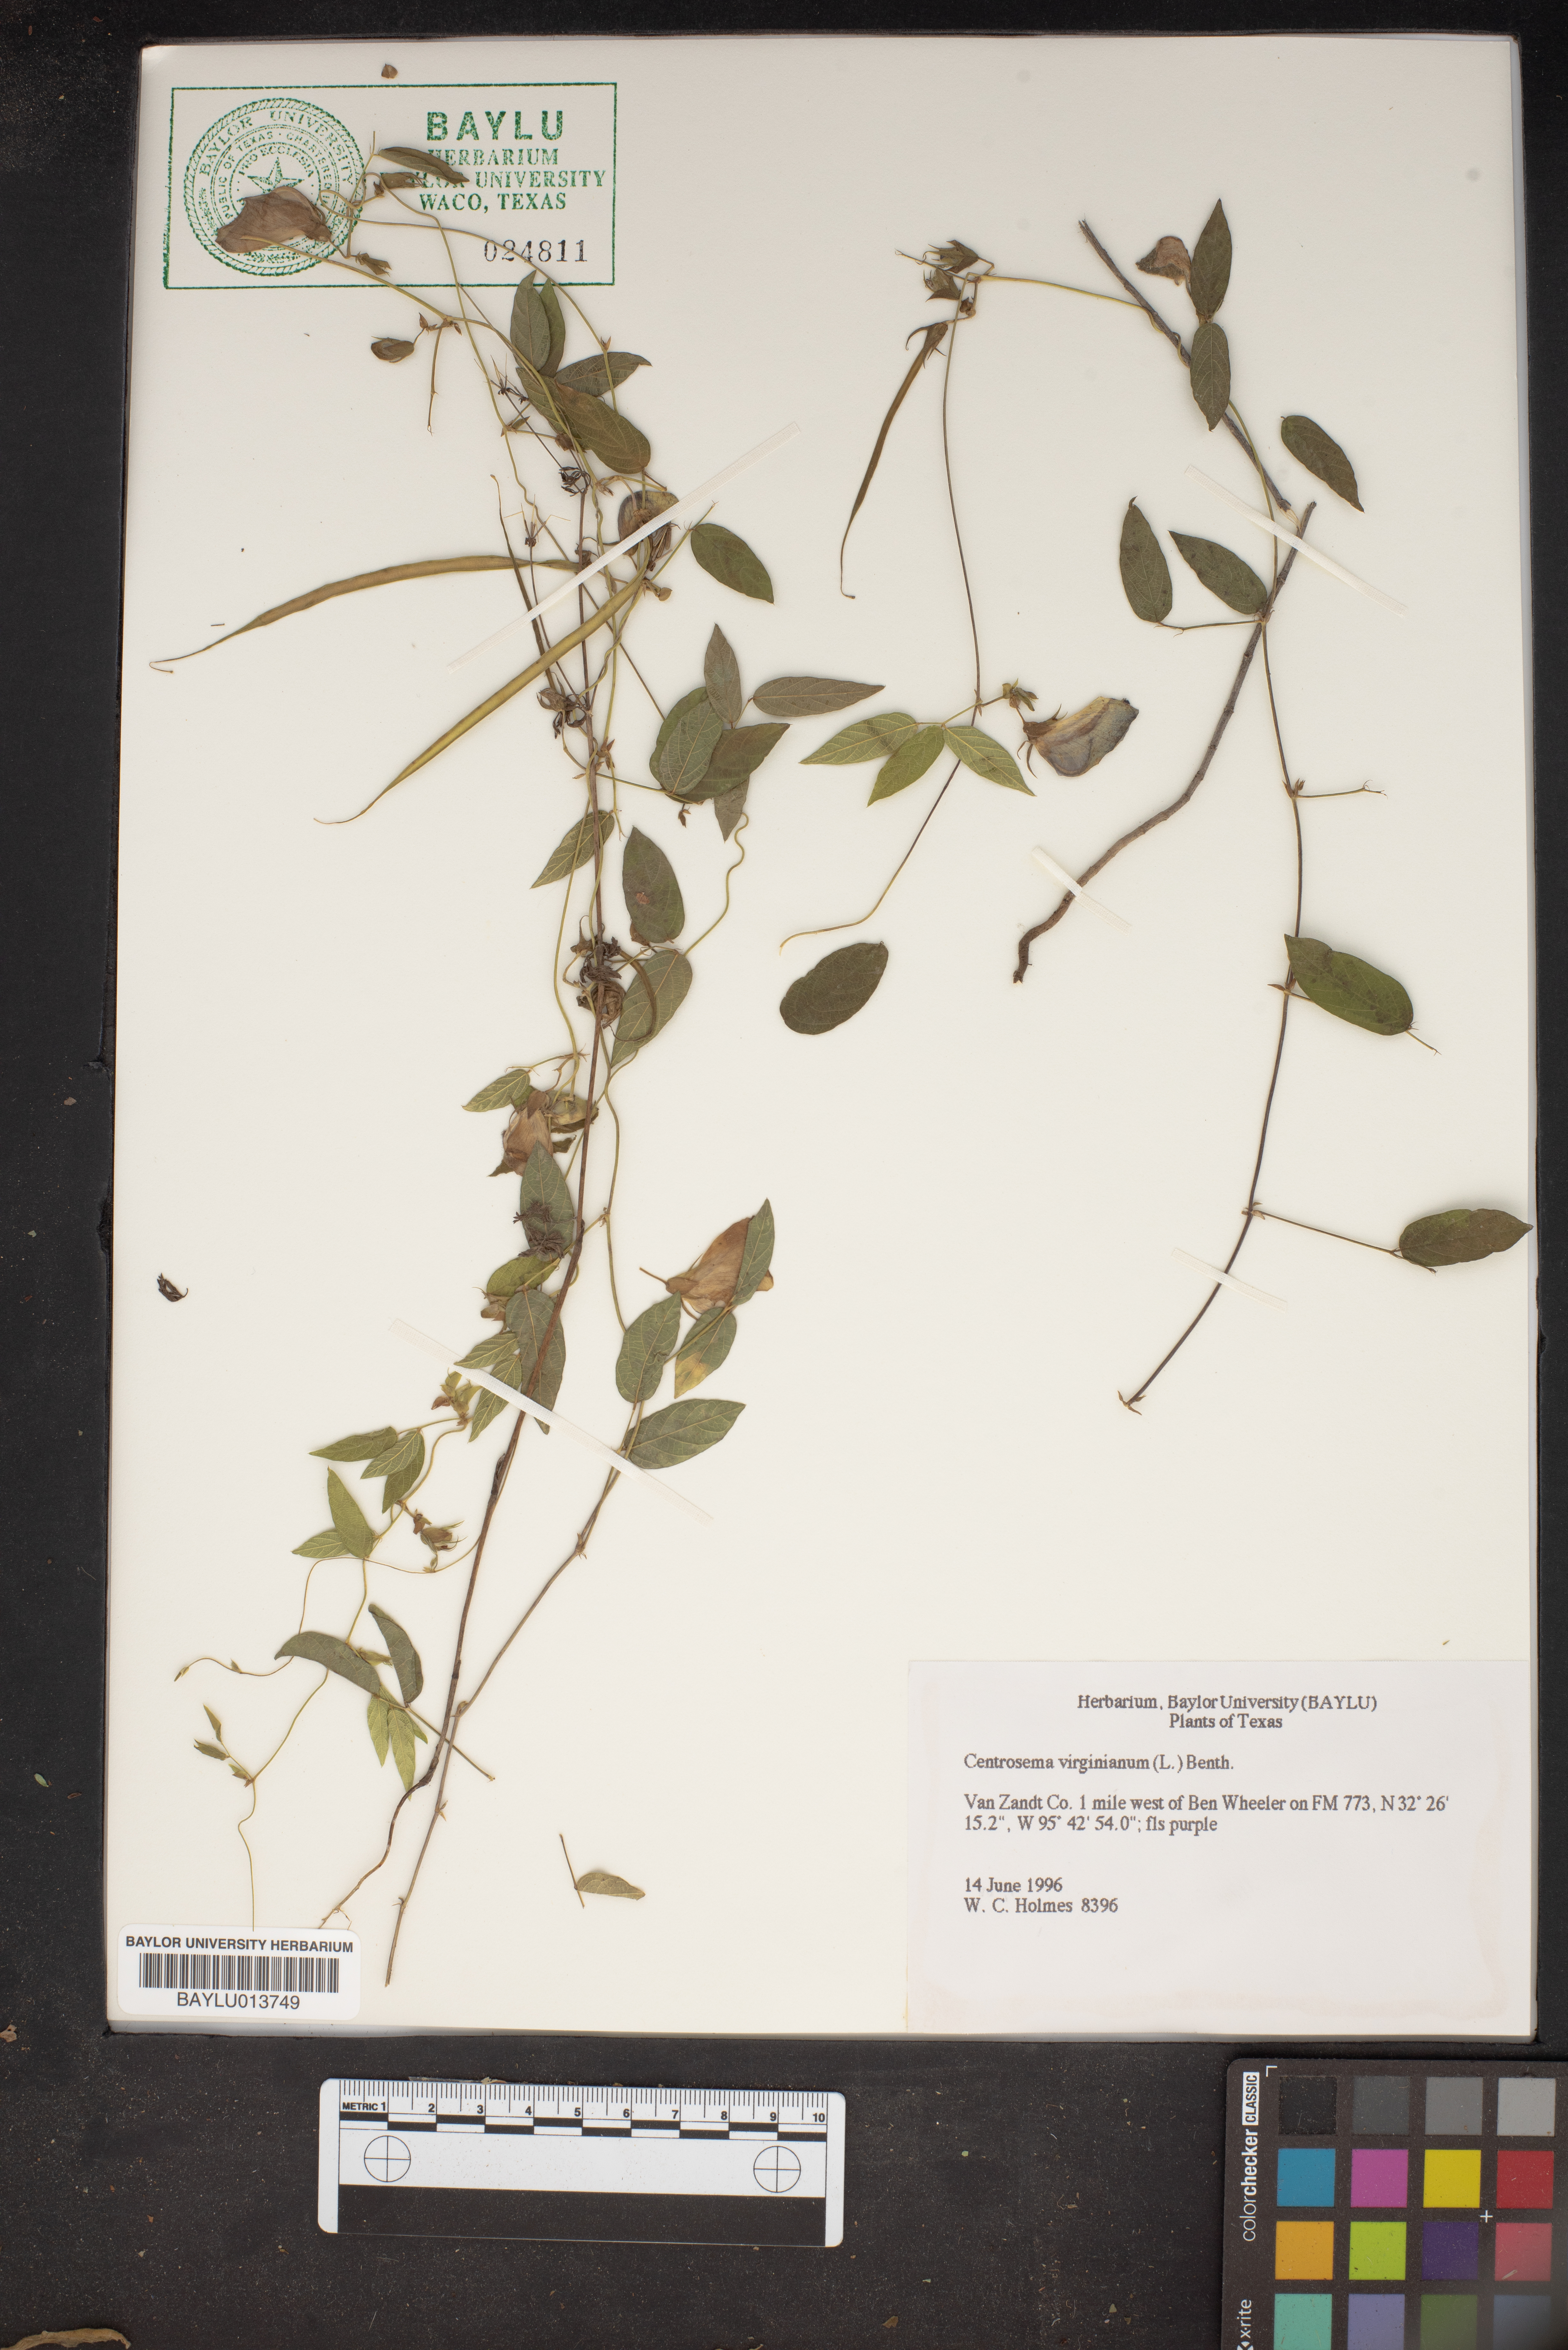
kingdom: Plantae
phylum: Tracheophyta
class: Magnoliopsida
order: Fabales
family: Fabaceae
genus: Centrosema
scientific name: Centrosema virginianum
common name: Butterfly-pea
